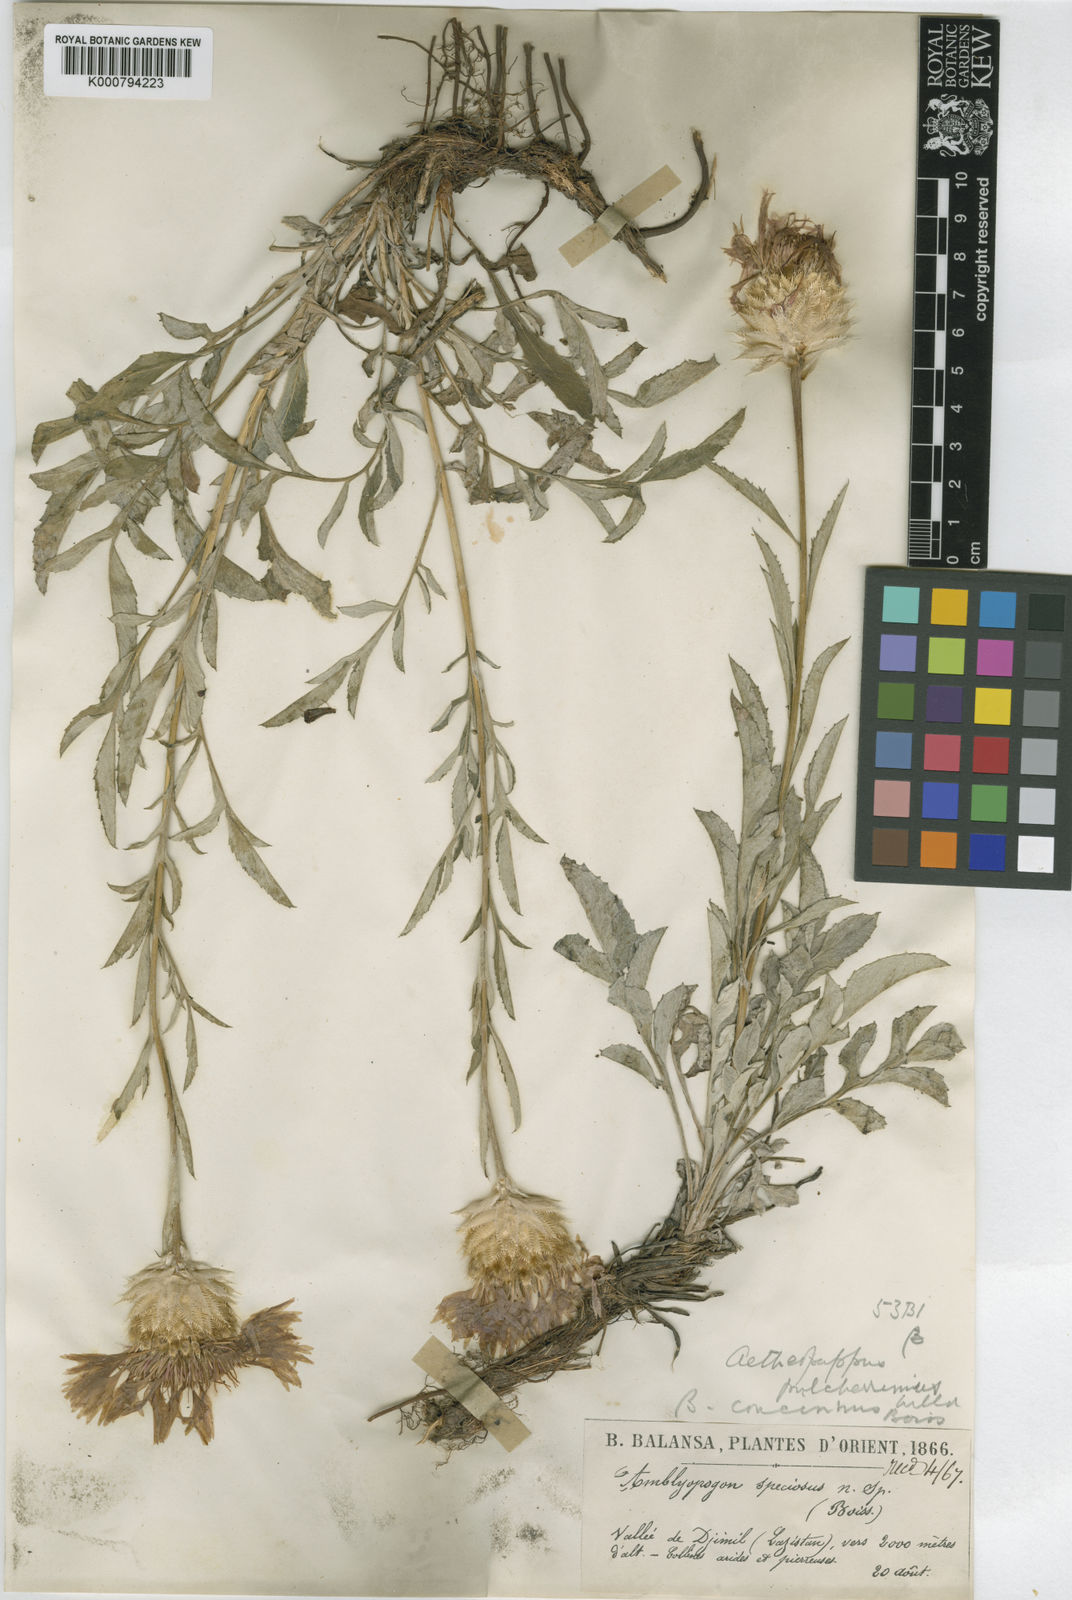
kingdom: Plantae
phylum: Tracheophyta
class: Magnoliopsida
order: Asterales
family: Asteraceae
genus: Psephellus
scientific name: Psephellus pulcherrimus
